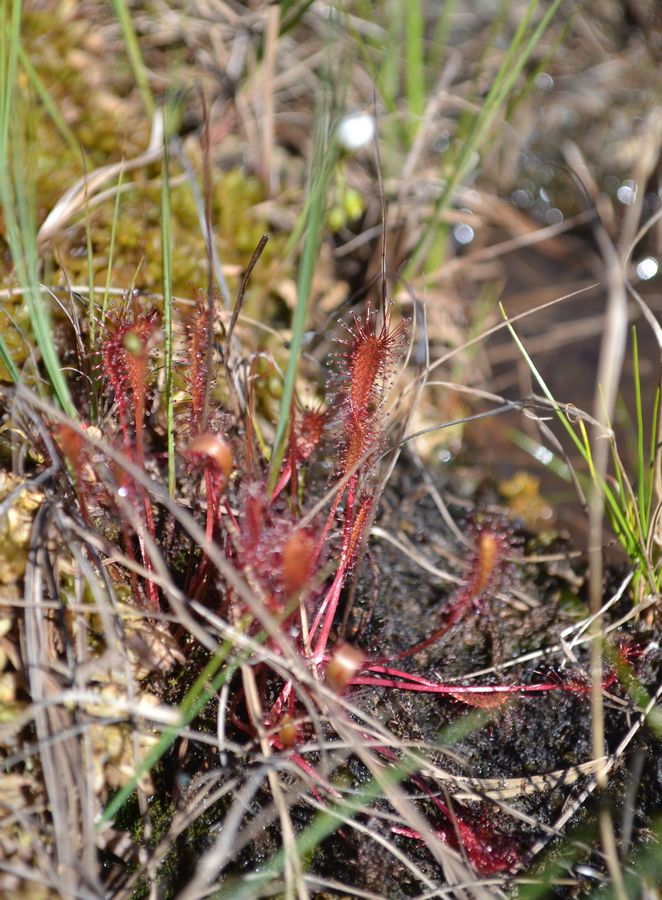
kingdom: Plantae
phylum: Tracheophyta
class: Magnoliopsida
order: Caryophyllales
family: Droseraceae
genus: Drosera
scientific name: Drosera anglica
